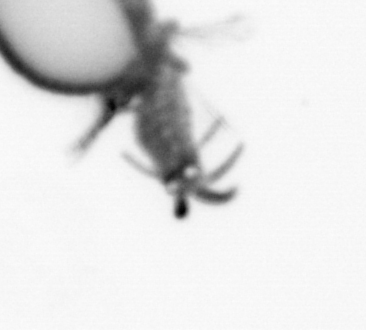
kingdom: Animalia
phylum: Annelida
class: Polychaeta
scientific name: Polychaeta
